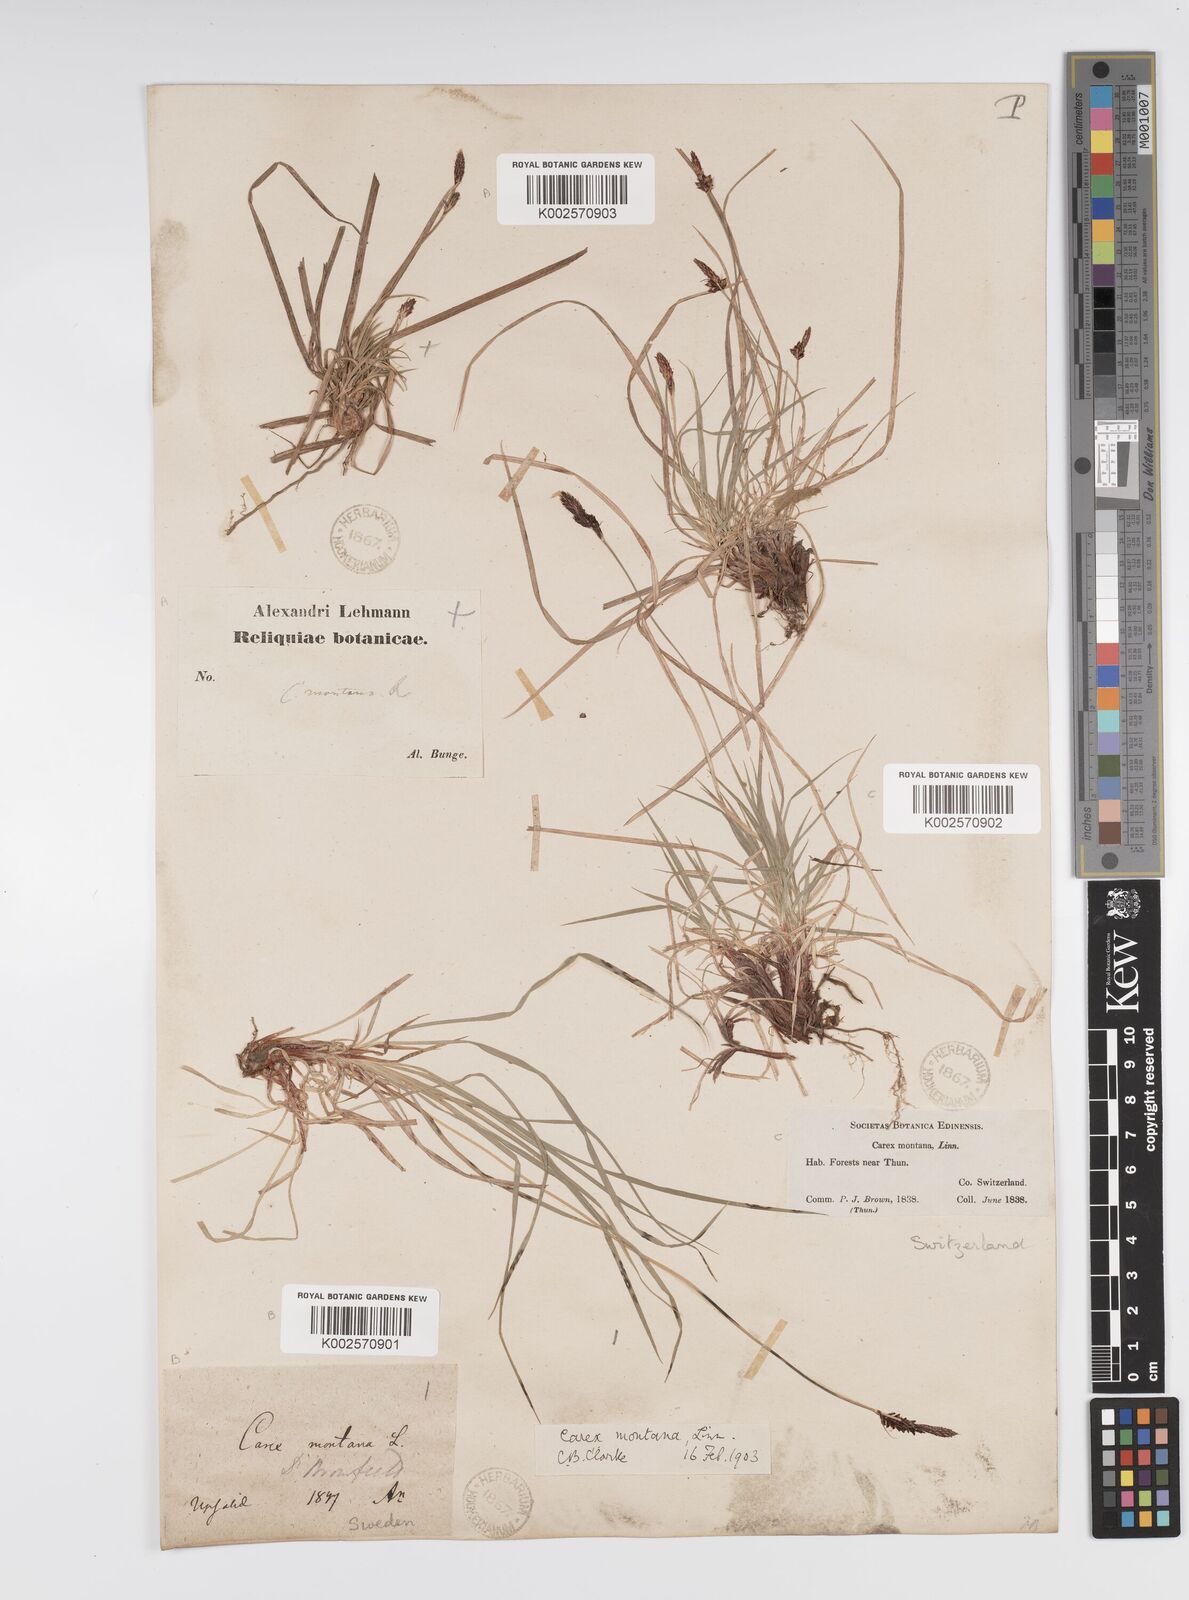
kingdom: Plantae
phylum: Tracheophyta
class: Liliopsida
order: Poales
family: Cyperaceae
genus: Carex
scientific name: Carex montana
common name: Soft-leaved sedge
